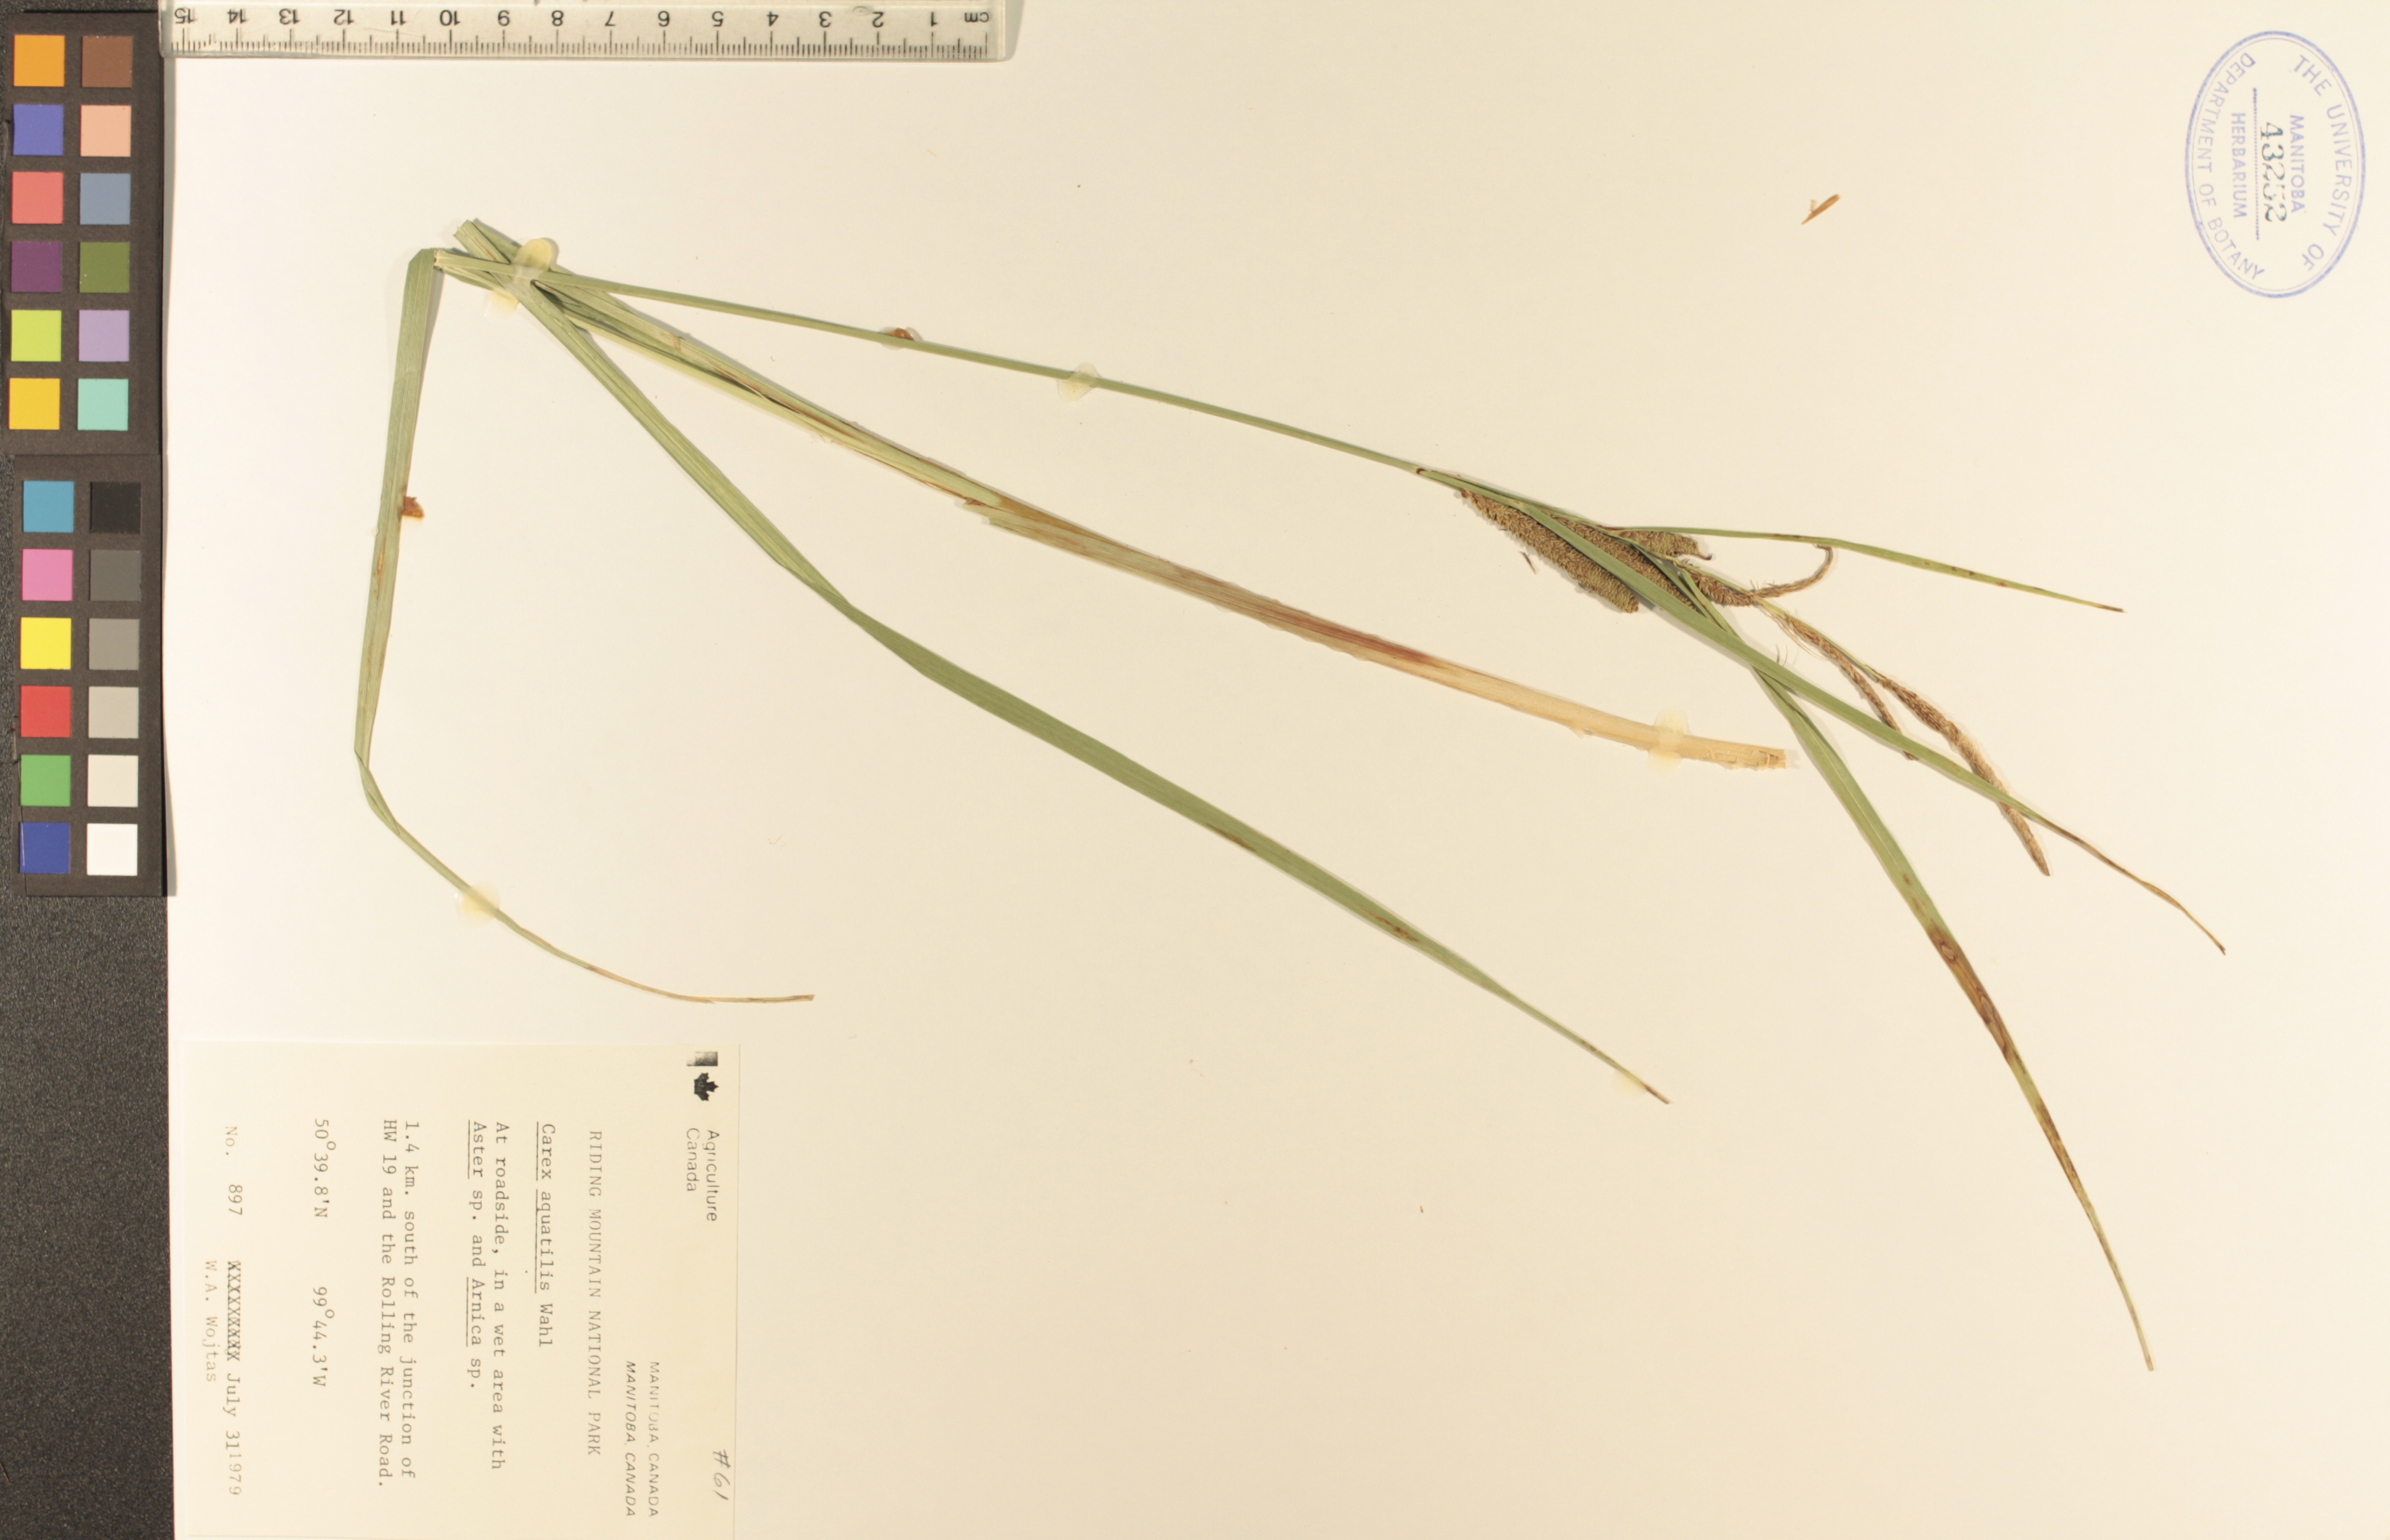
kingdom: Plantae
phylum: Tracheophyta
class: Liliopsida
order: Poales
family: Cyperaceae
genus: Carex
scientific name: Carex aquatilis
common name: Water sedge
